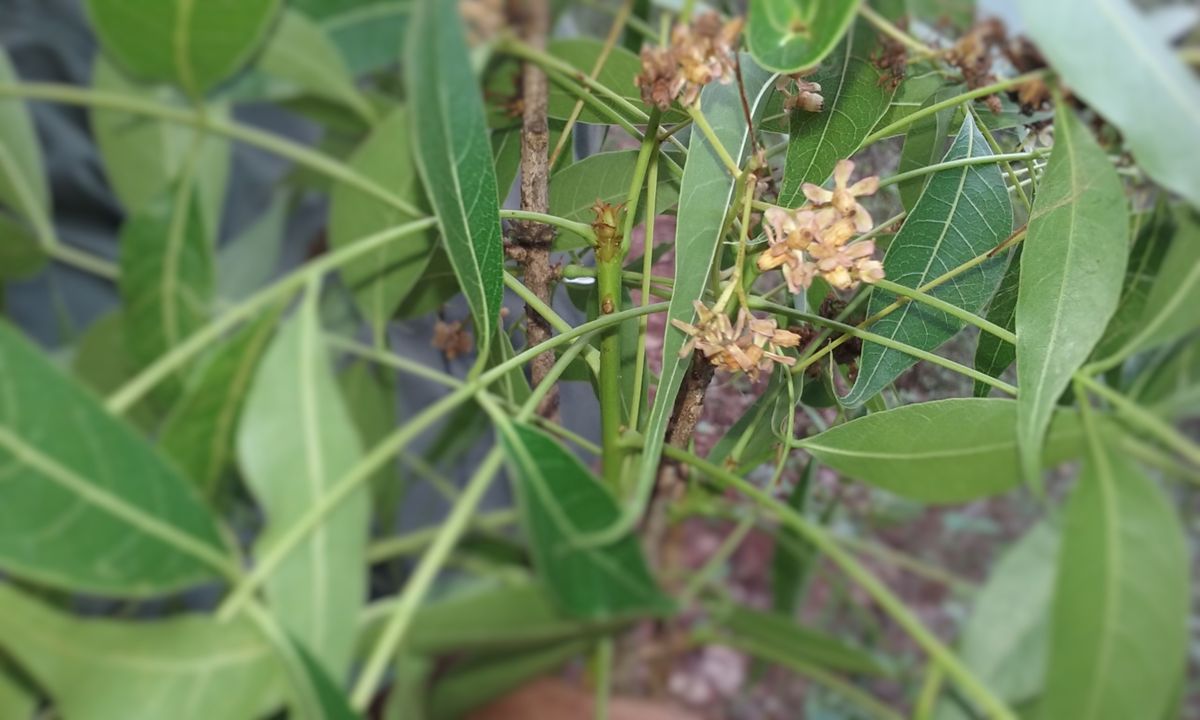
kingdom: Plantae
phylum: Tracheophyta
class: Magnoliopsida
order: Sapindales
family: Meliaceae
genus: Swietenia
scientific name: Swietenia humilis
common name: Pacific coast mahogany
